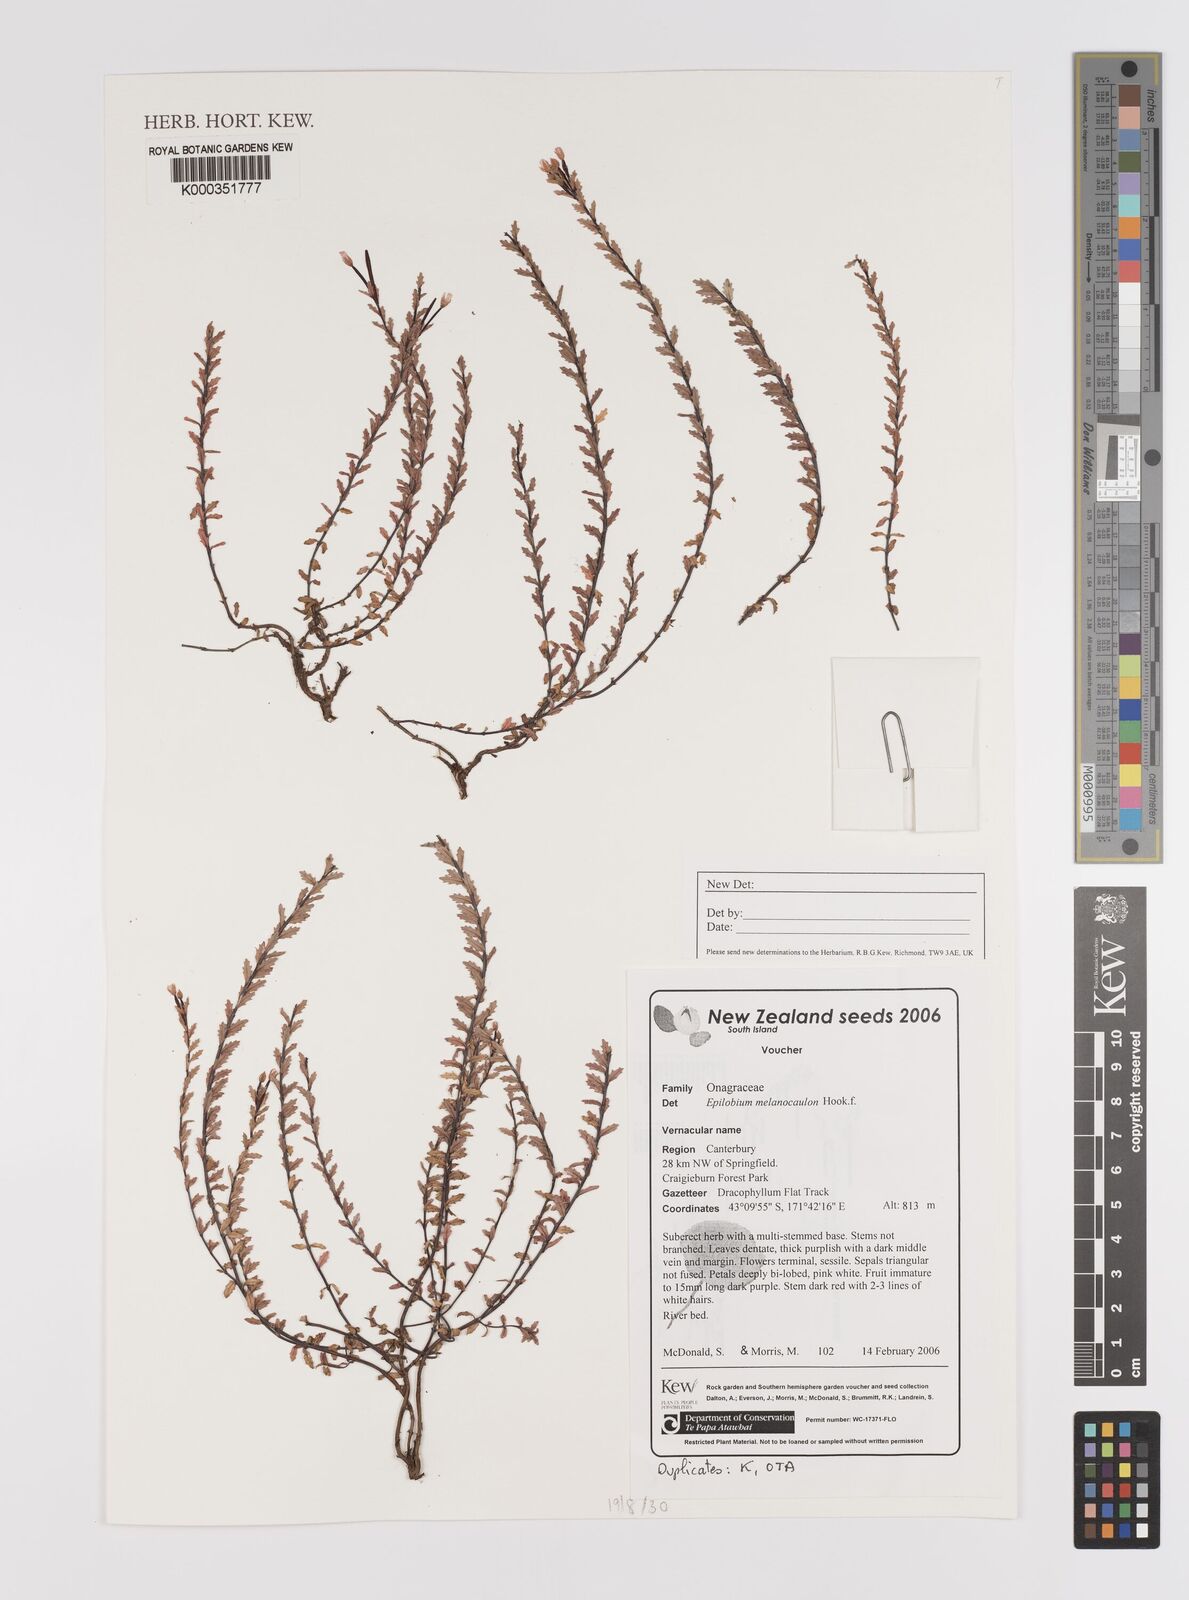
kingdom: Plantae
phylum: Tracheophyta
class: Magnoliopsida
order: Myrtales
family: Onagraceae
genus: Epilobium
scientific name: Epilobium melanocaulon
